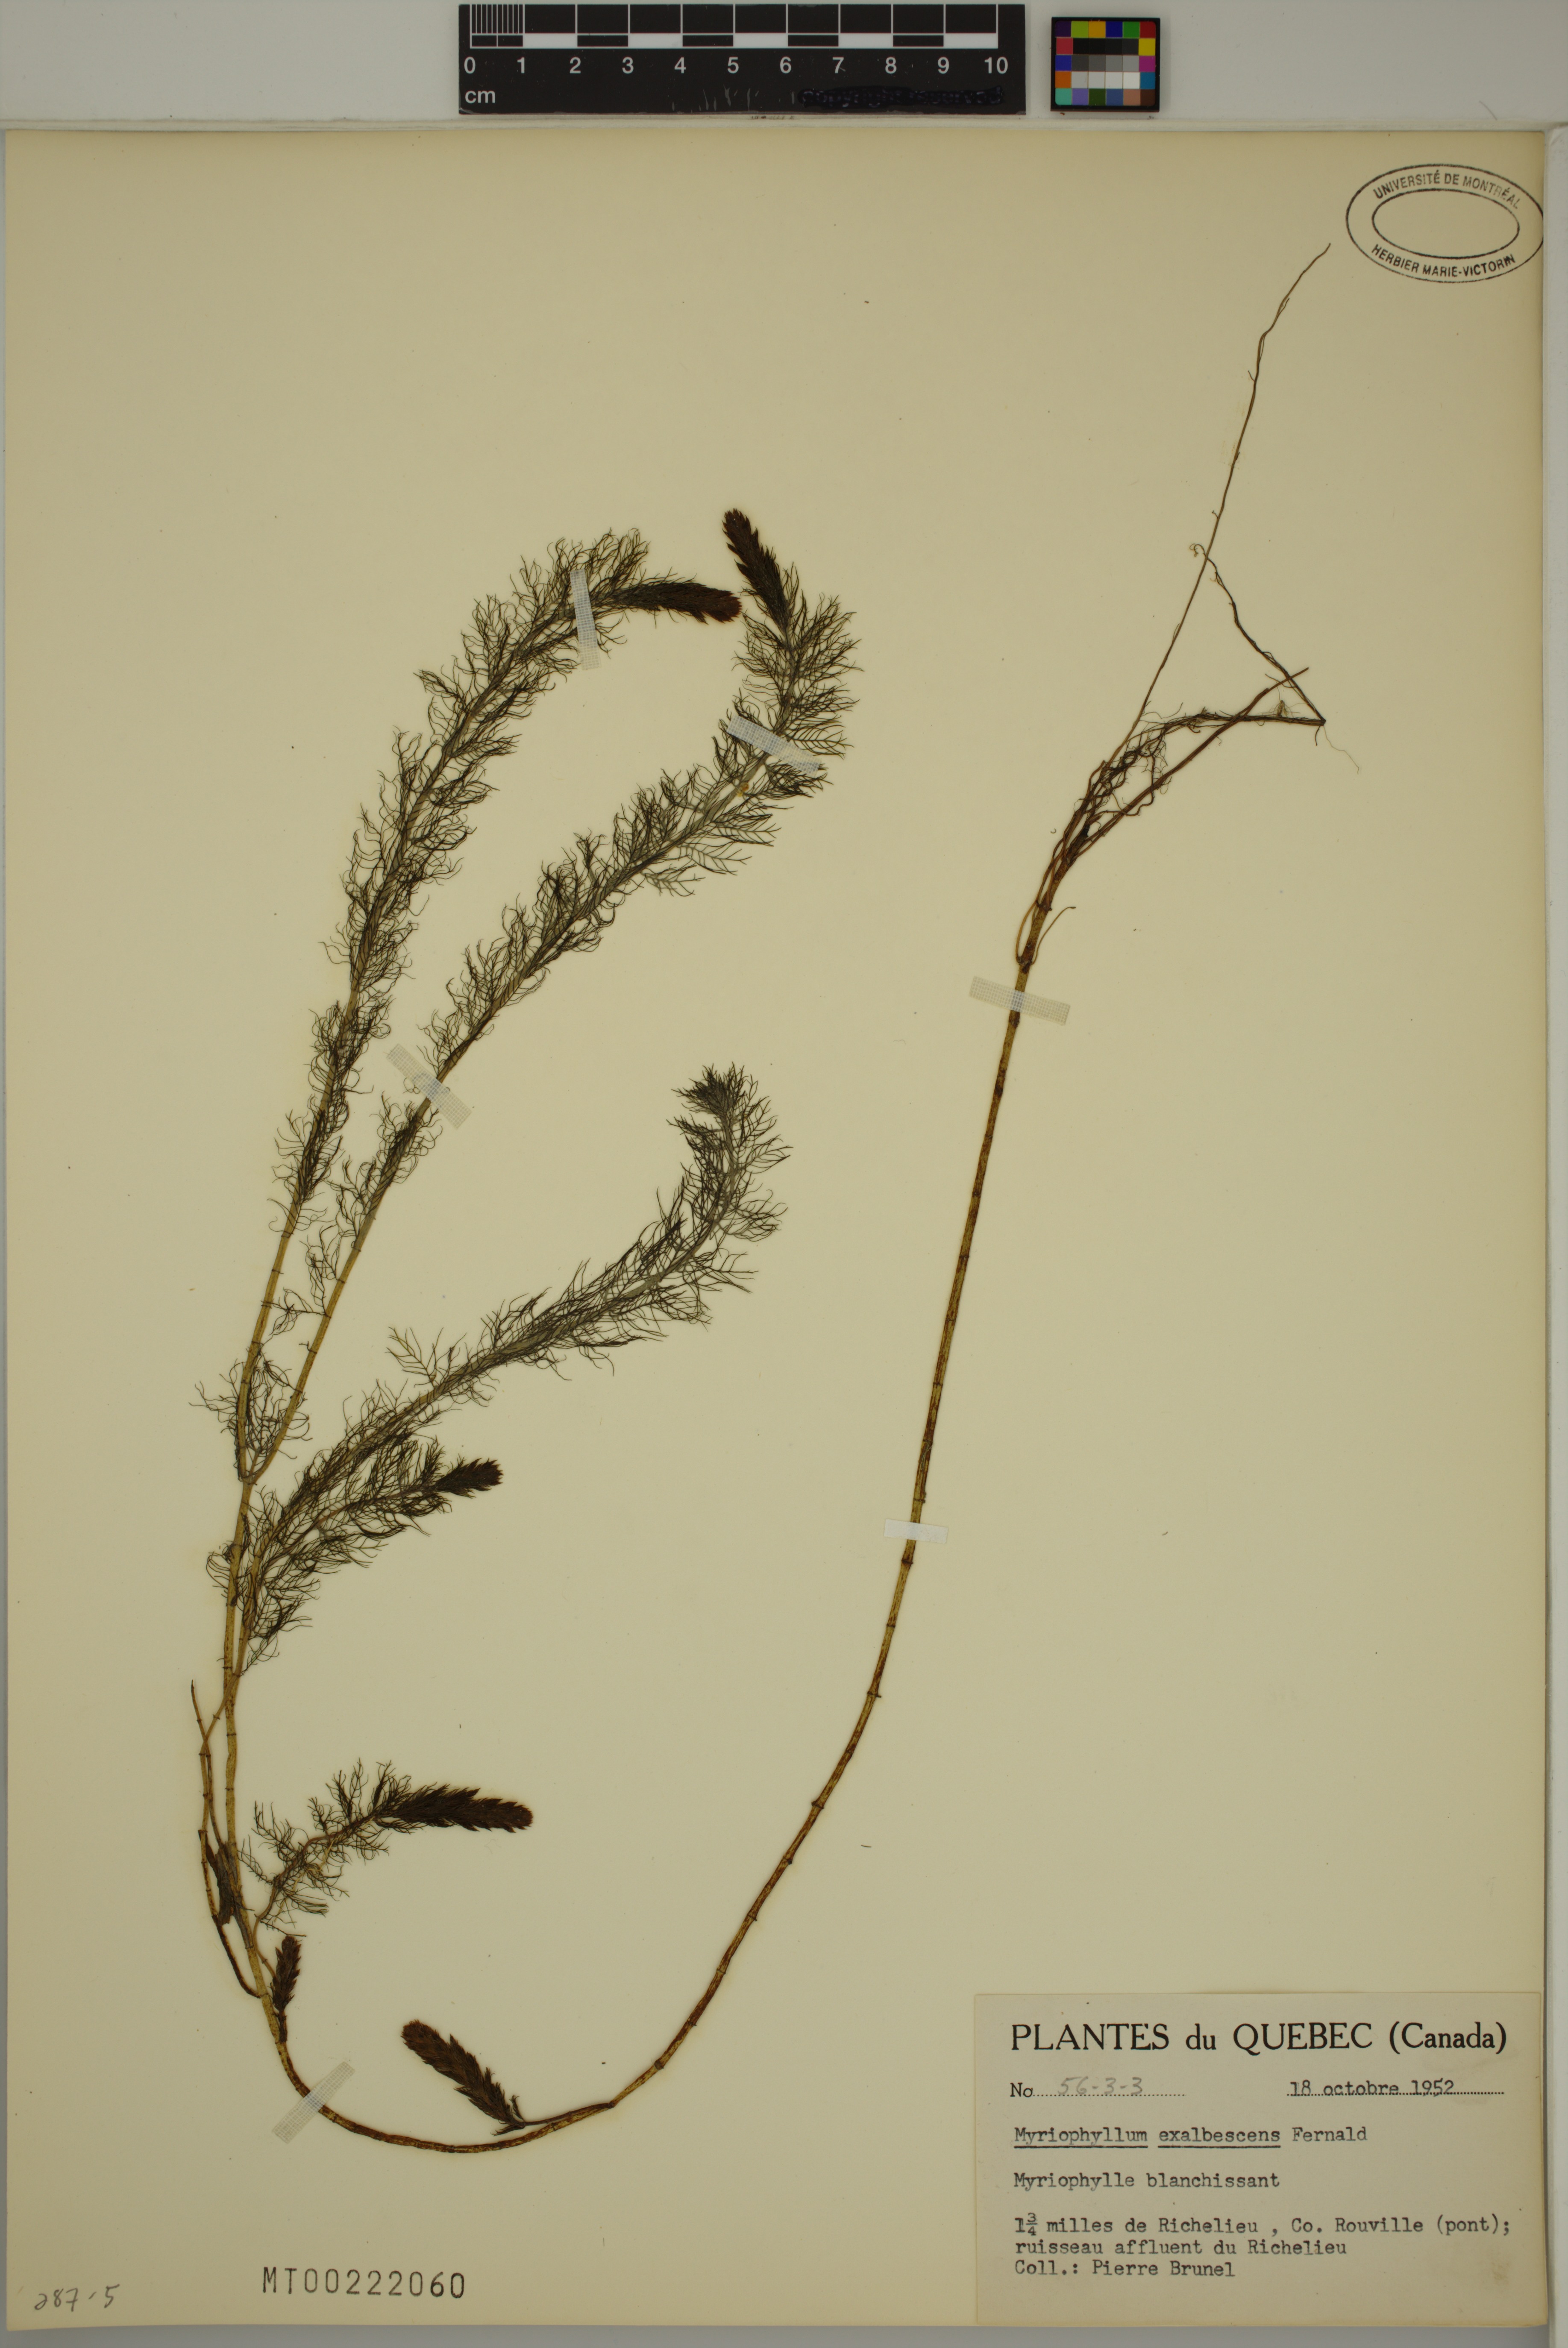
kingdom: Plantae
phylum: Tracheophyta
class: Magnoliopsida
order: Saxifragales
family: Haloragaceae
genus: Myriophyllum
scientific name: Myriophyllum sibiricum
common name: Siberian water-milfoil
